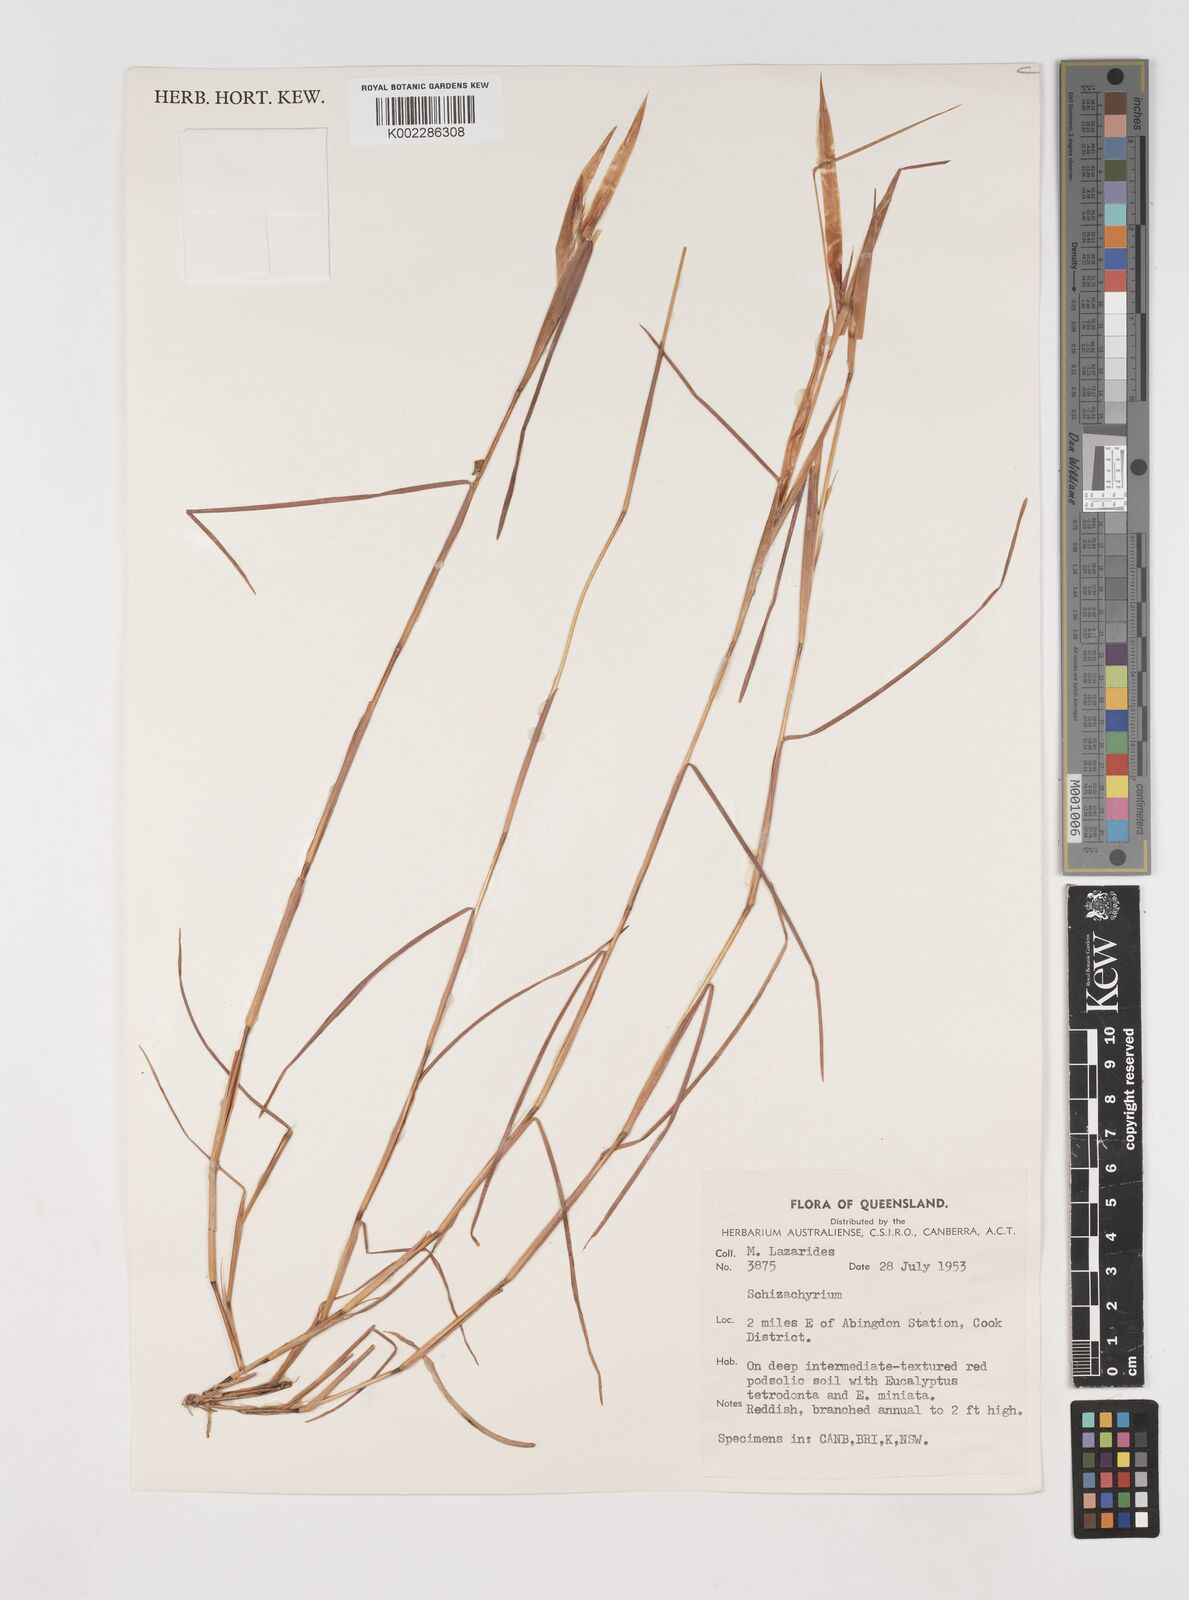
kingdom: Plantae
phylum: Tracheophyta
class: Liliopsida
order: Poales
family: Poaceae
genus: Schizachyrium
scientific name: Schizachyrium
